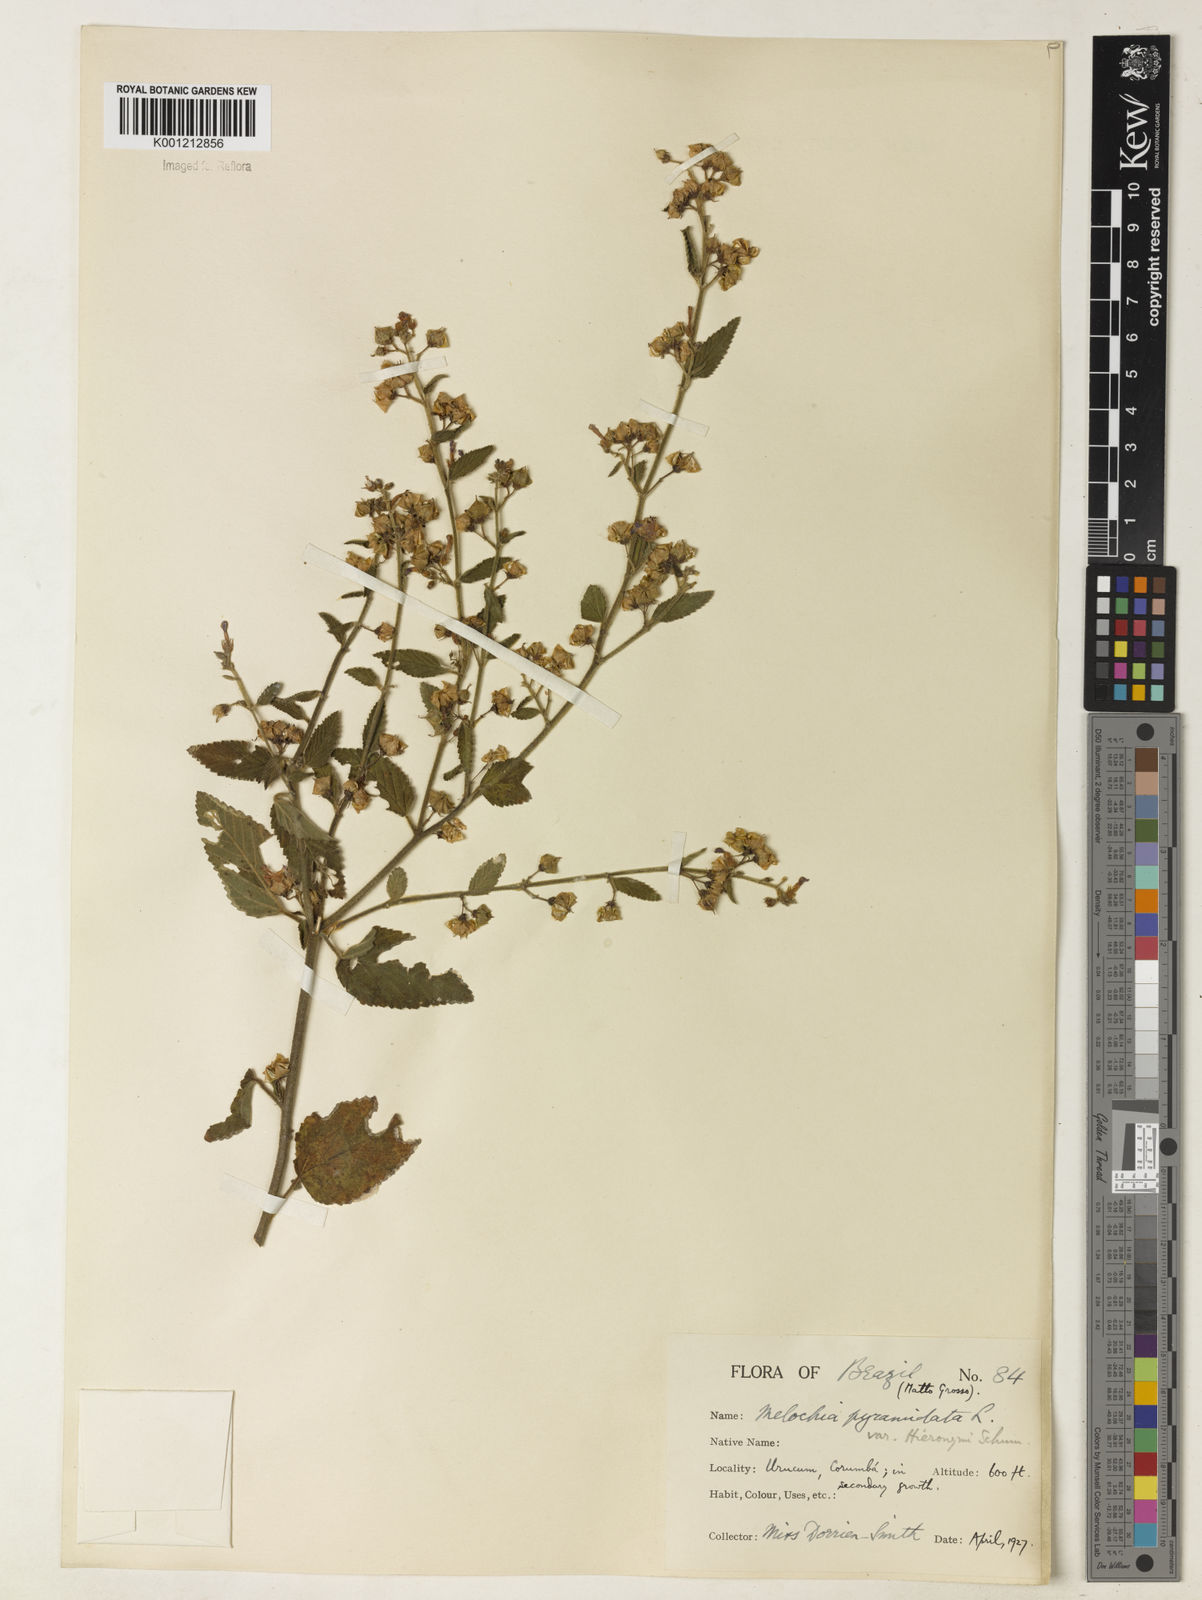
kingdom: Plantae
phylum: Tracheophyta
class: Magnoliopsida
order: Malvales
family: Malvaceae
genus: Melochia
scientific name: Melochia pyramidata
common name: Pyramidflower
